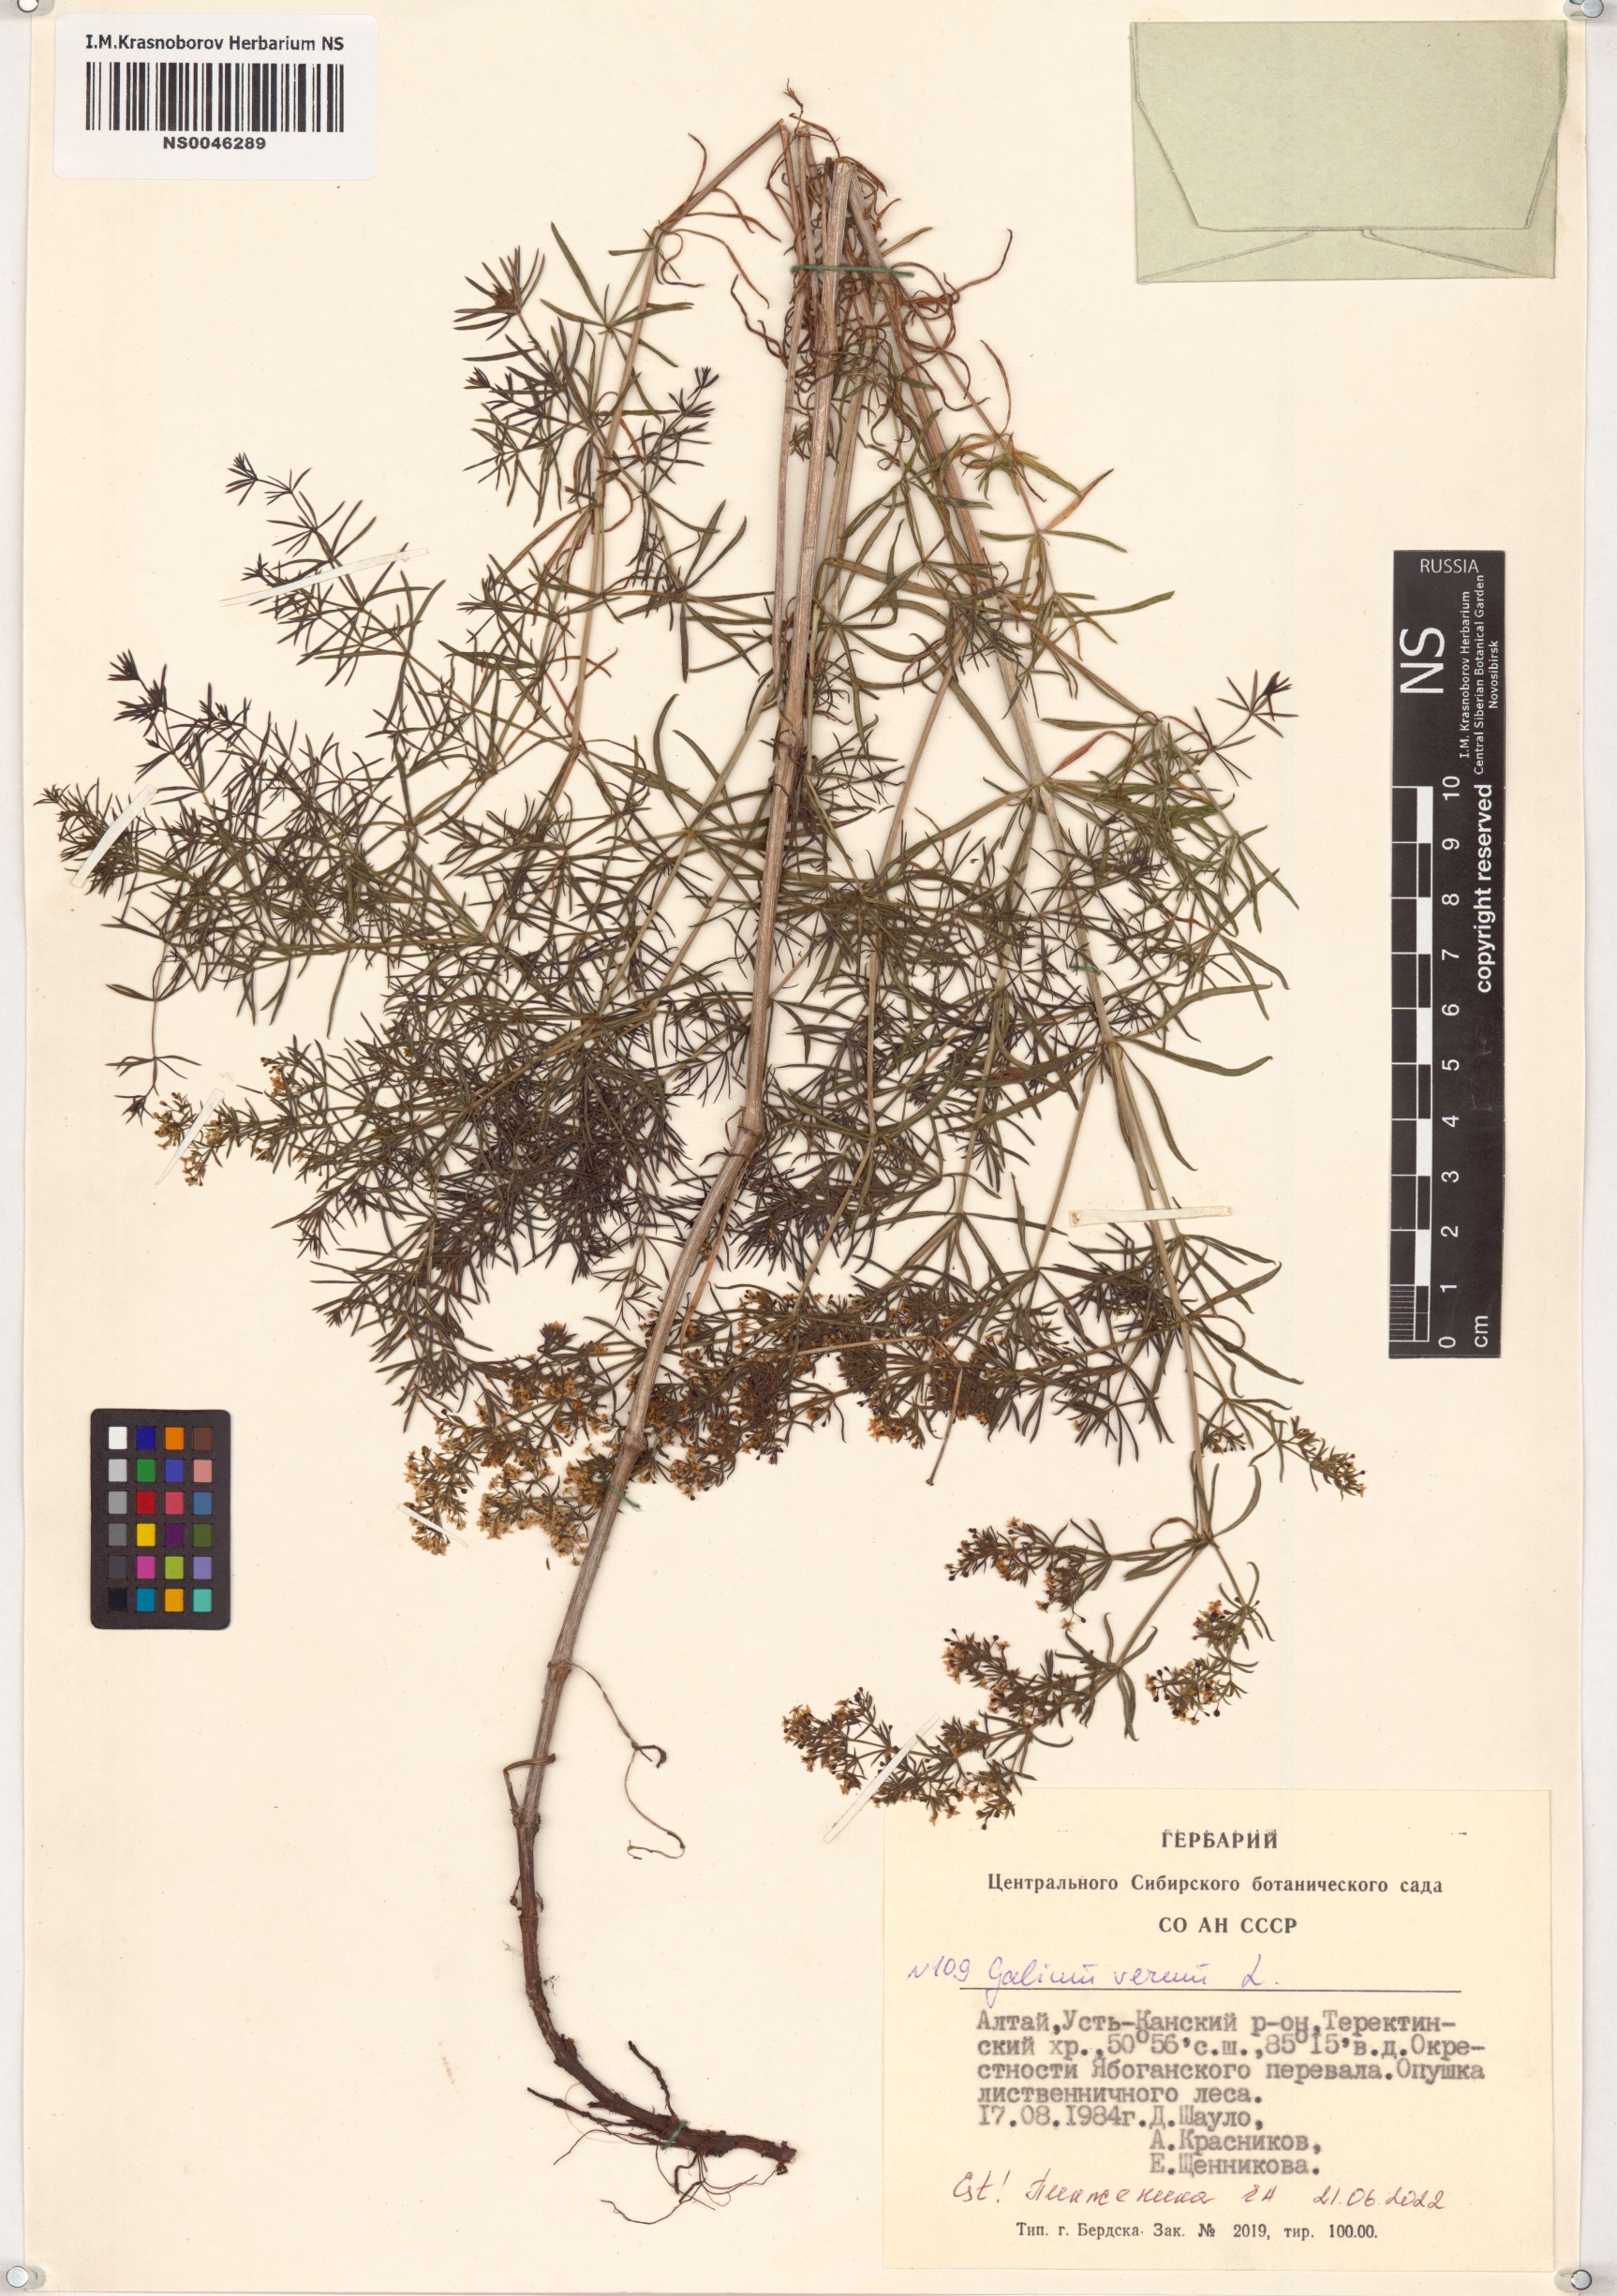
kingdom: Plantae
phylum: Tracheophyta
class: Magnoliopsida
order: Gentianales
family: Rubiaceae
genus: Galium
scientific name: Galium verum
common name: Lady's bedstraw
